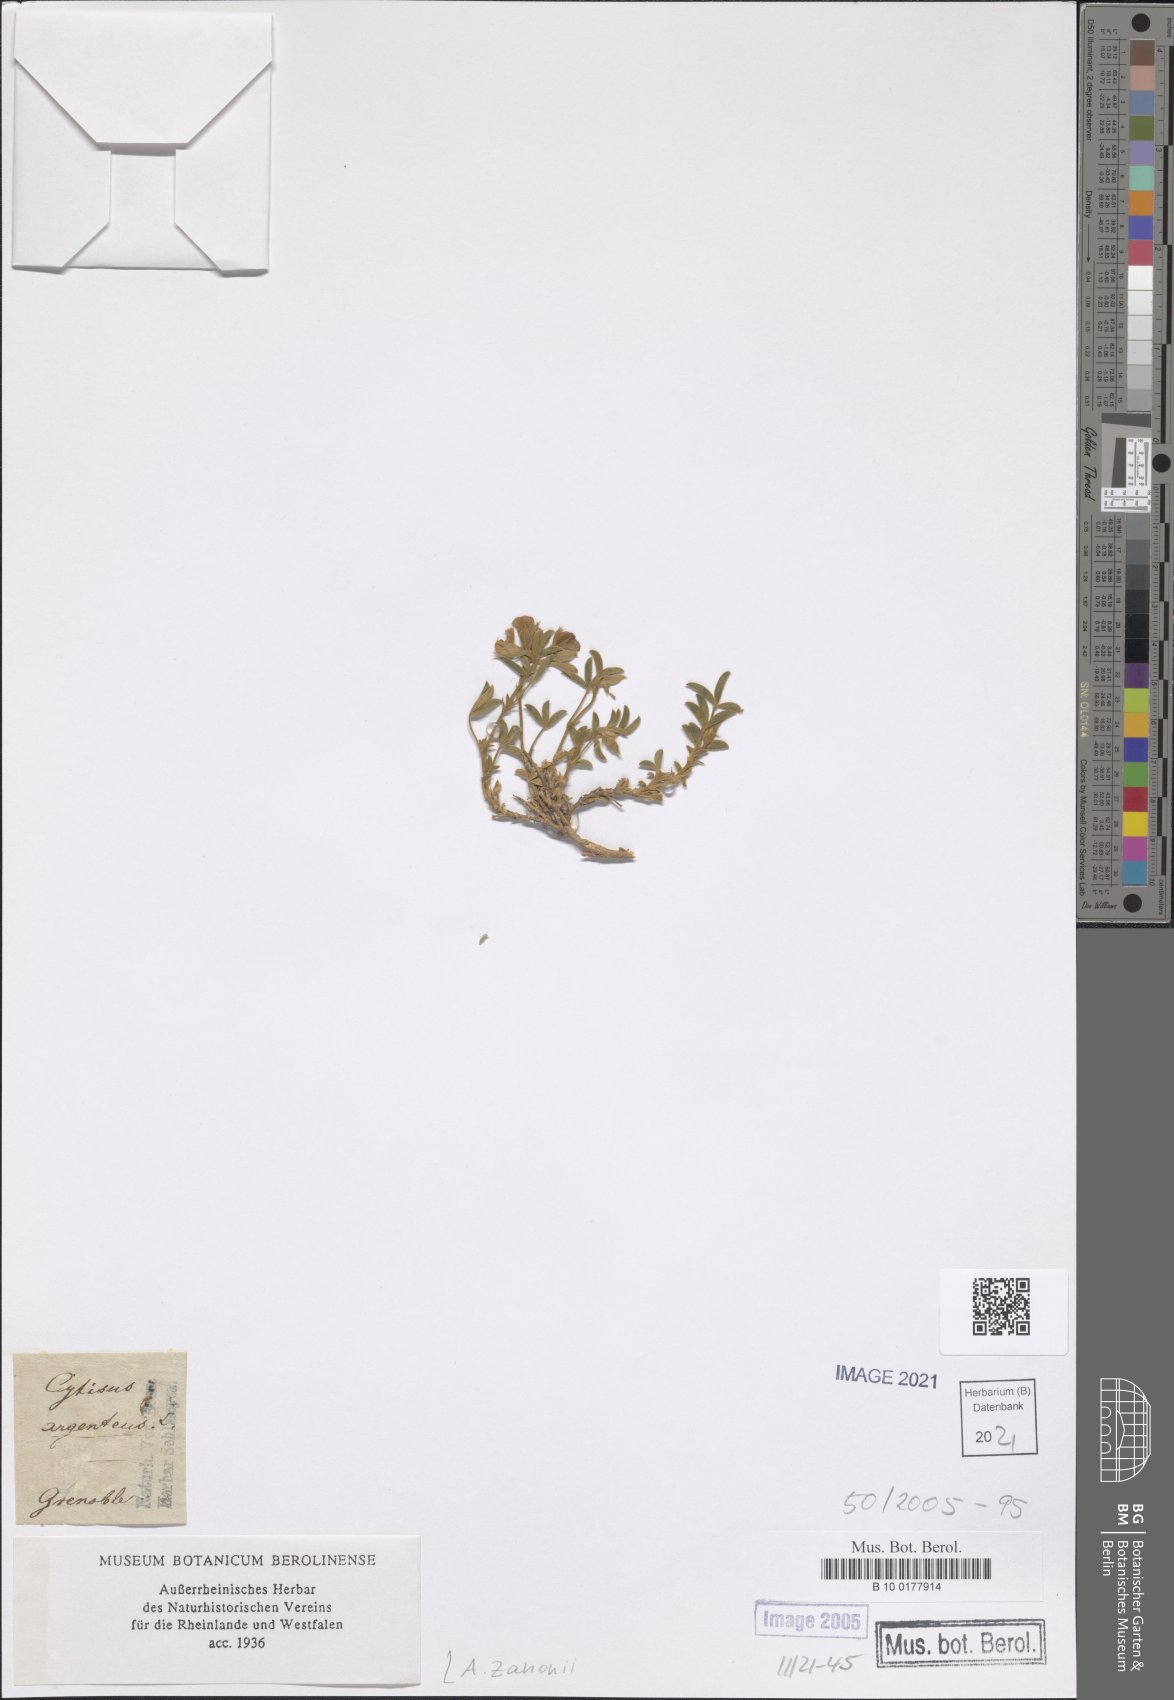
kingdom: Plantae
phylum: Tracheophyta
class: Magnoliopsida
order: Fabales
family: Fabaceae
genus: Argyrolobium
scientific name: Argyrolobium zanonii
